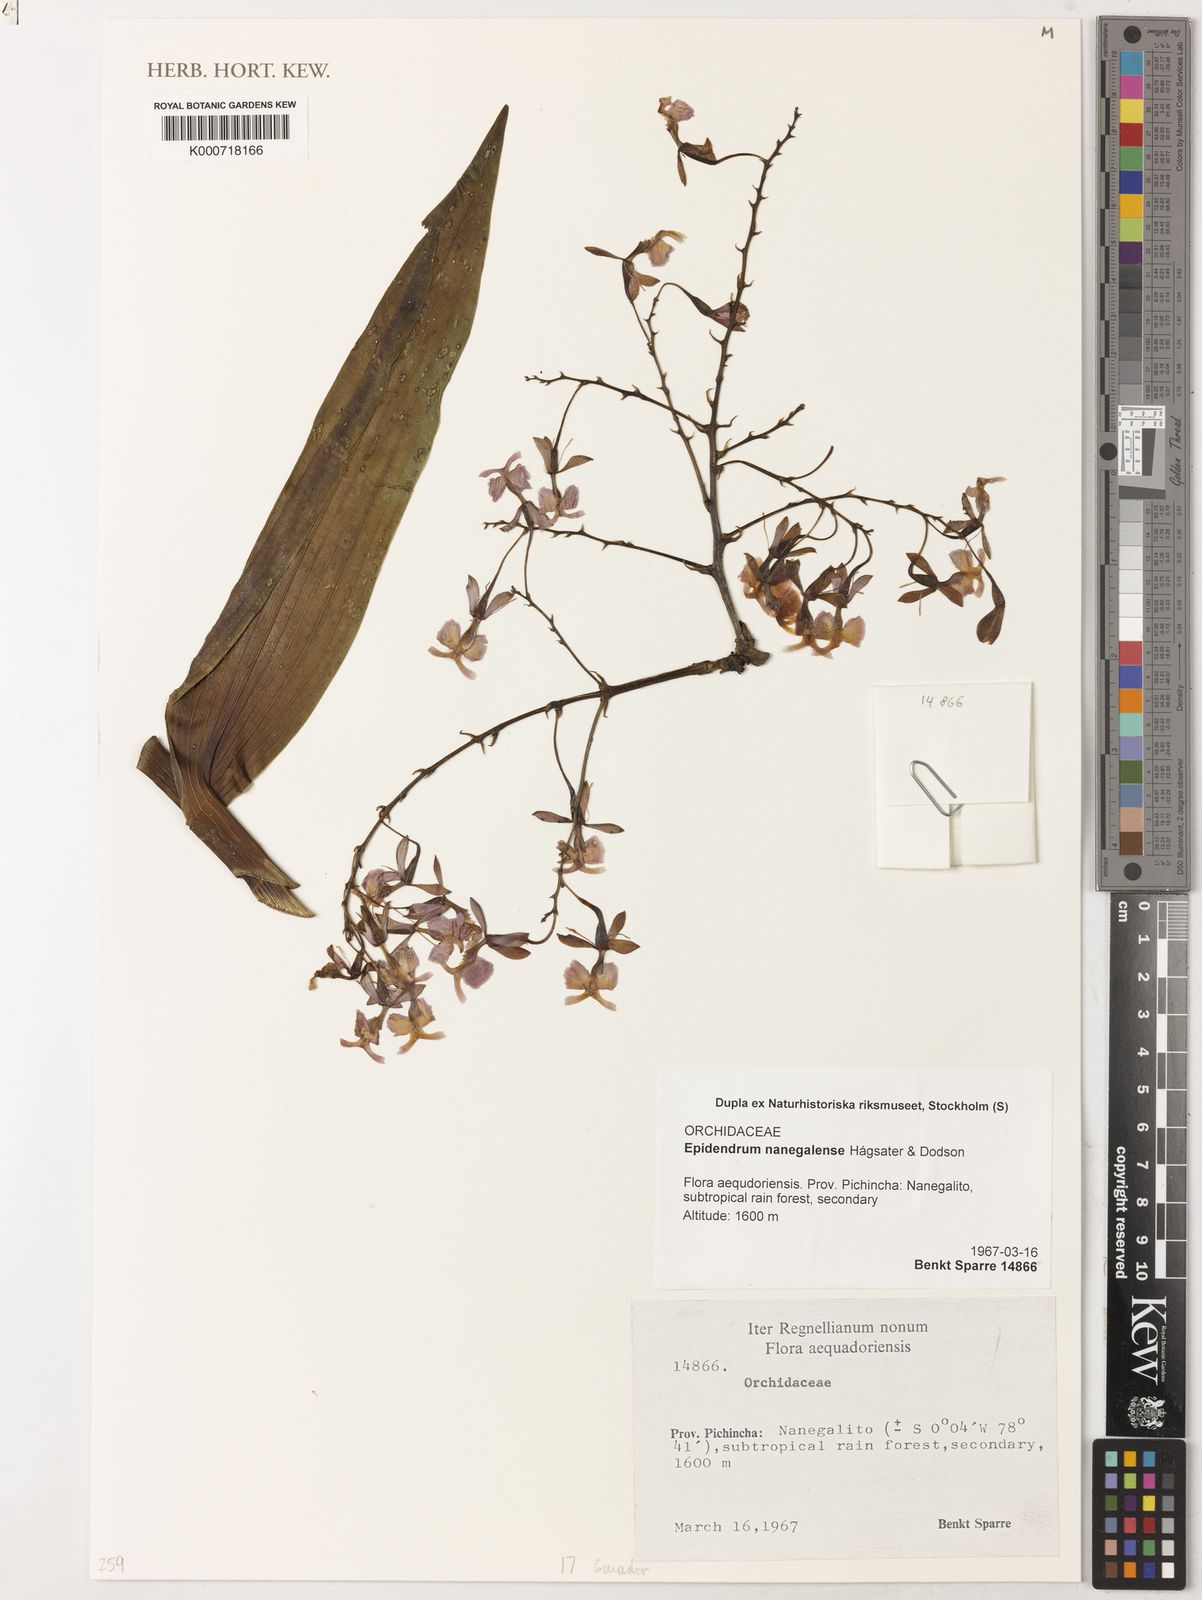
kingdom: Plantae
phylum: Tracheophyta
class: Liliopsida
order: Asparagales
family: Orchidaceae
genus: Epidendrum
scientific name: Epidendrum
